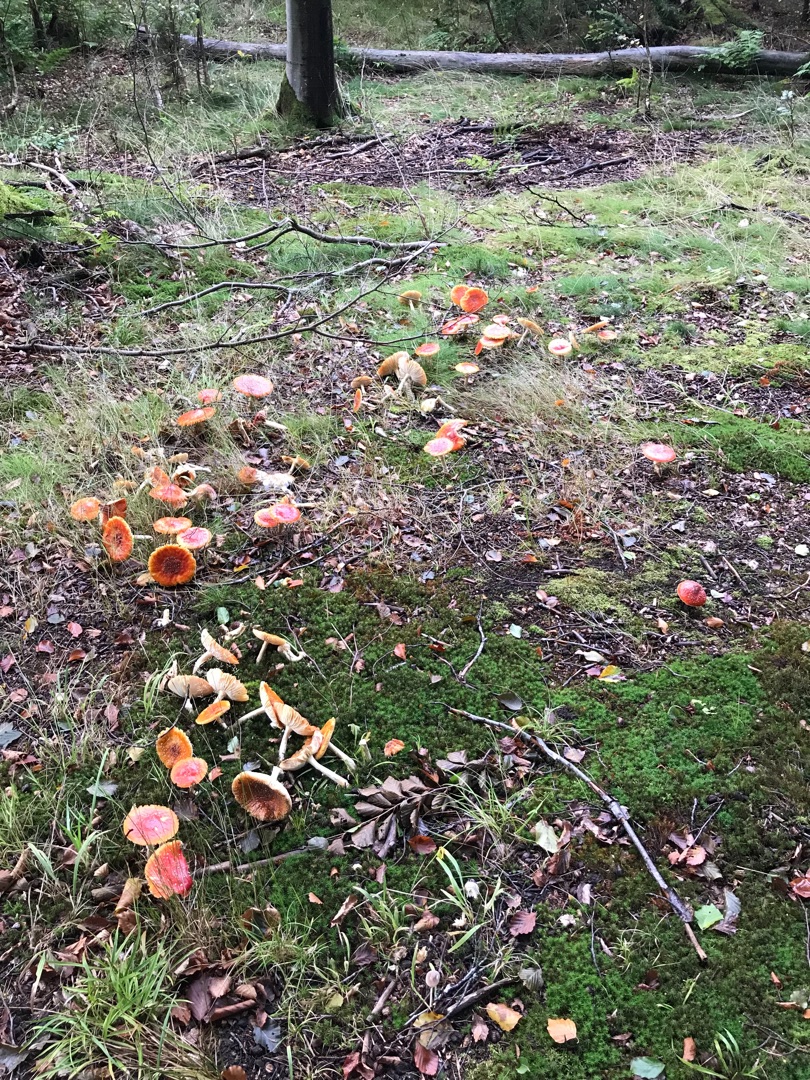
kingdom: Fungi
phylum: Basidiomycota
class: Agaricomycetes
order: Agaricales
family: Amanitaceae
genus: Amanita
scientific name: Amanita muscaria
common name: Rød fluesvamp
